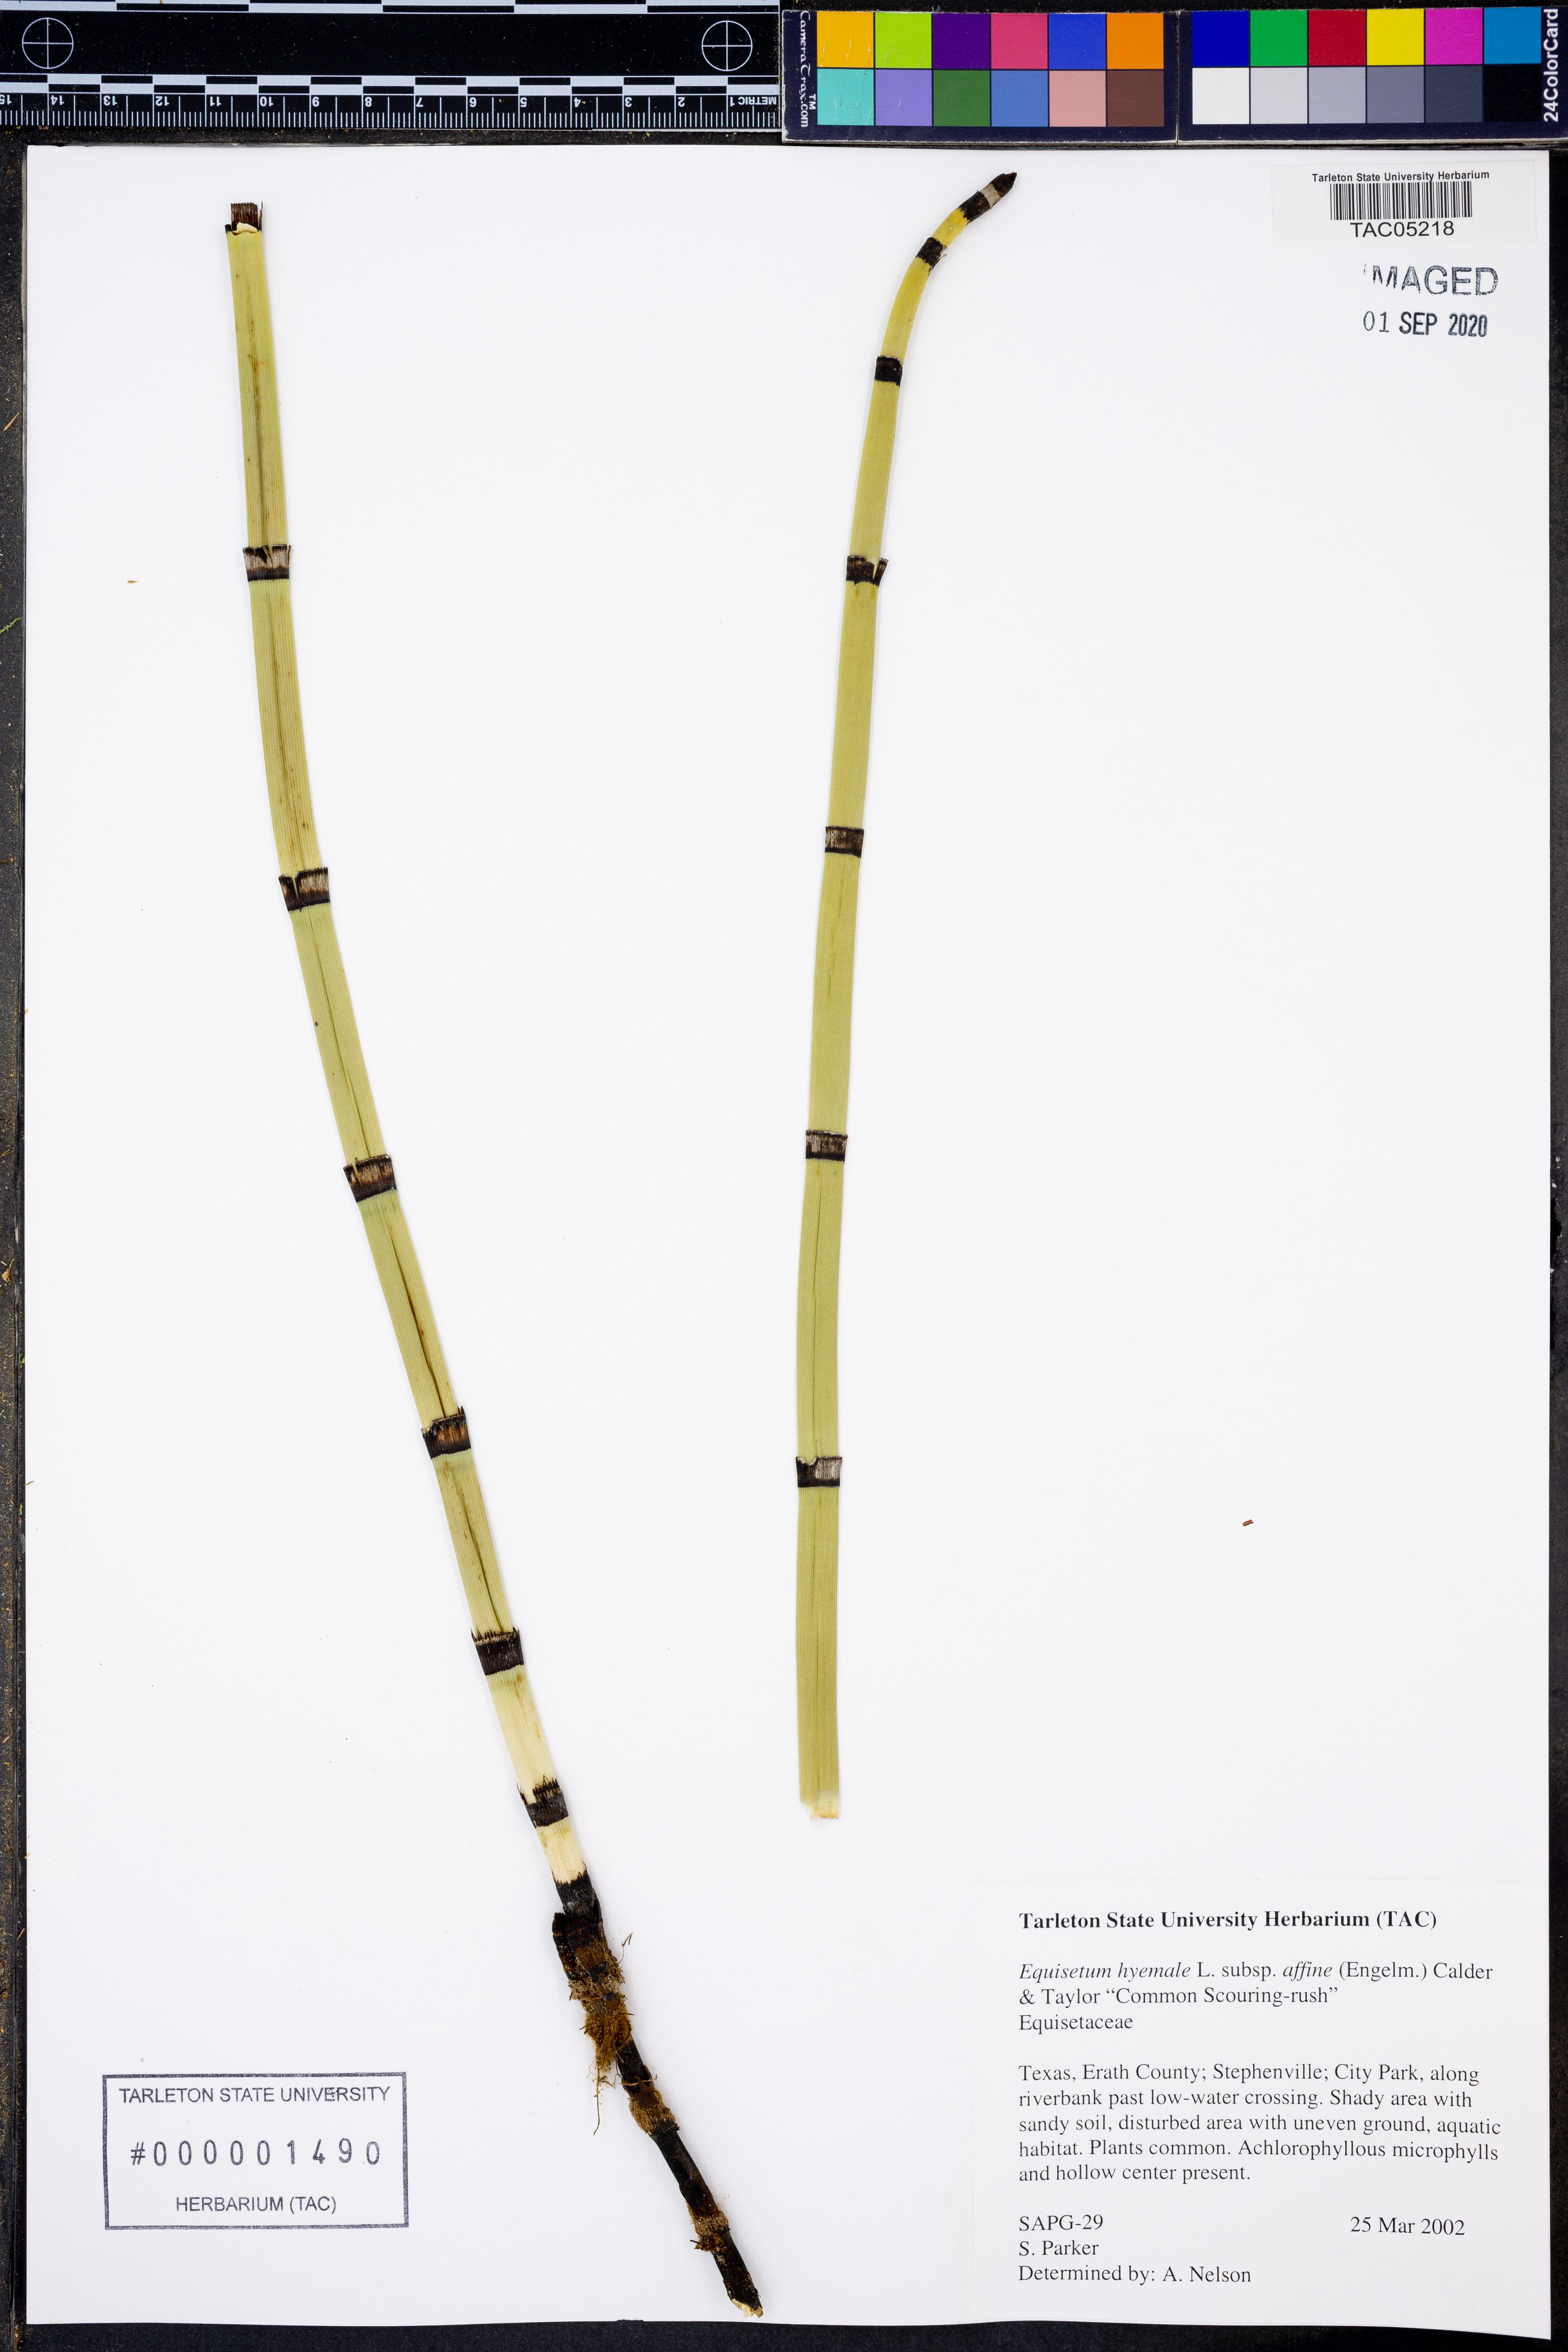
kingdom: Plantae
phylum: Tracheophyta
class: Polypodiopsida
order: Equisetales
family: Equisetaceae
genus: Equisetum
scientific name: Equisetum praealtum
